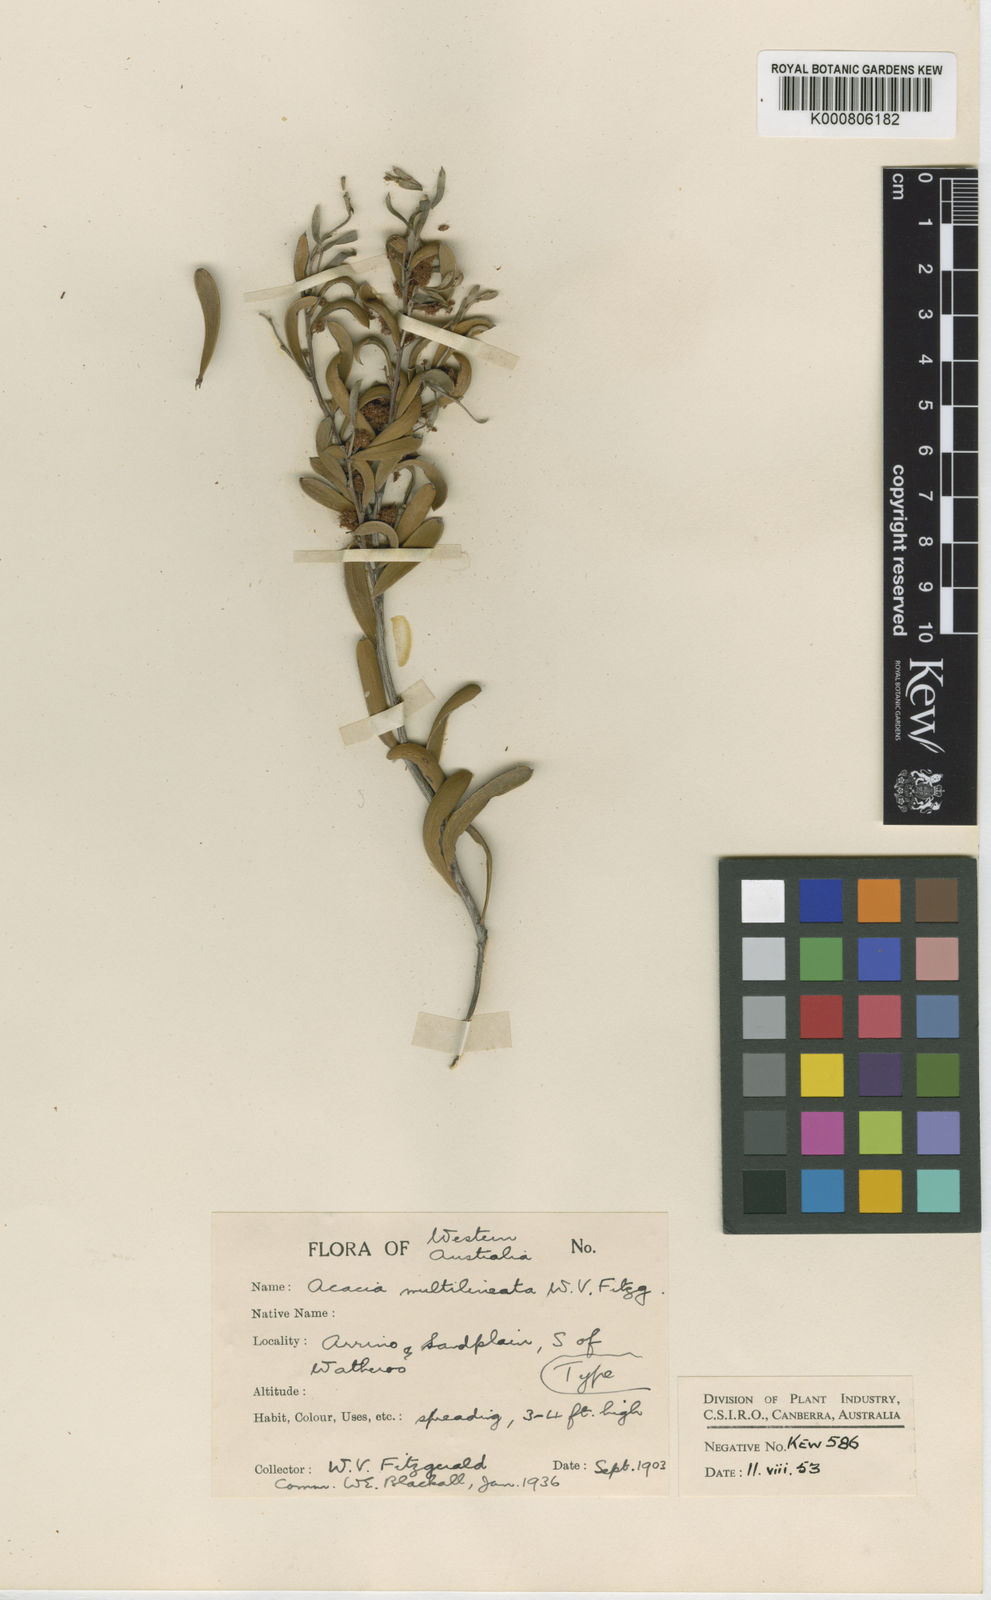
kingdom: Plantae
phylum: Tracheophyta
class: Magnoliopsida
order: Fabales
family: Fabaceae
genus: Acacia
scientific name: Acacia lineolata
